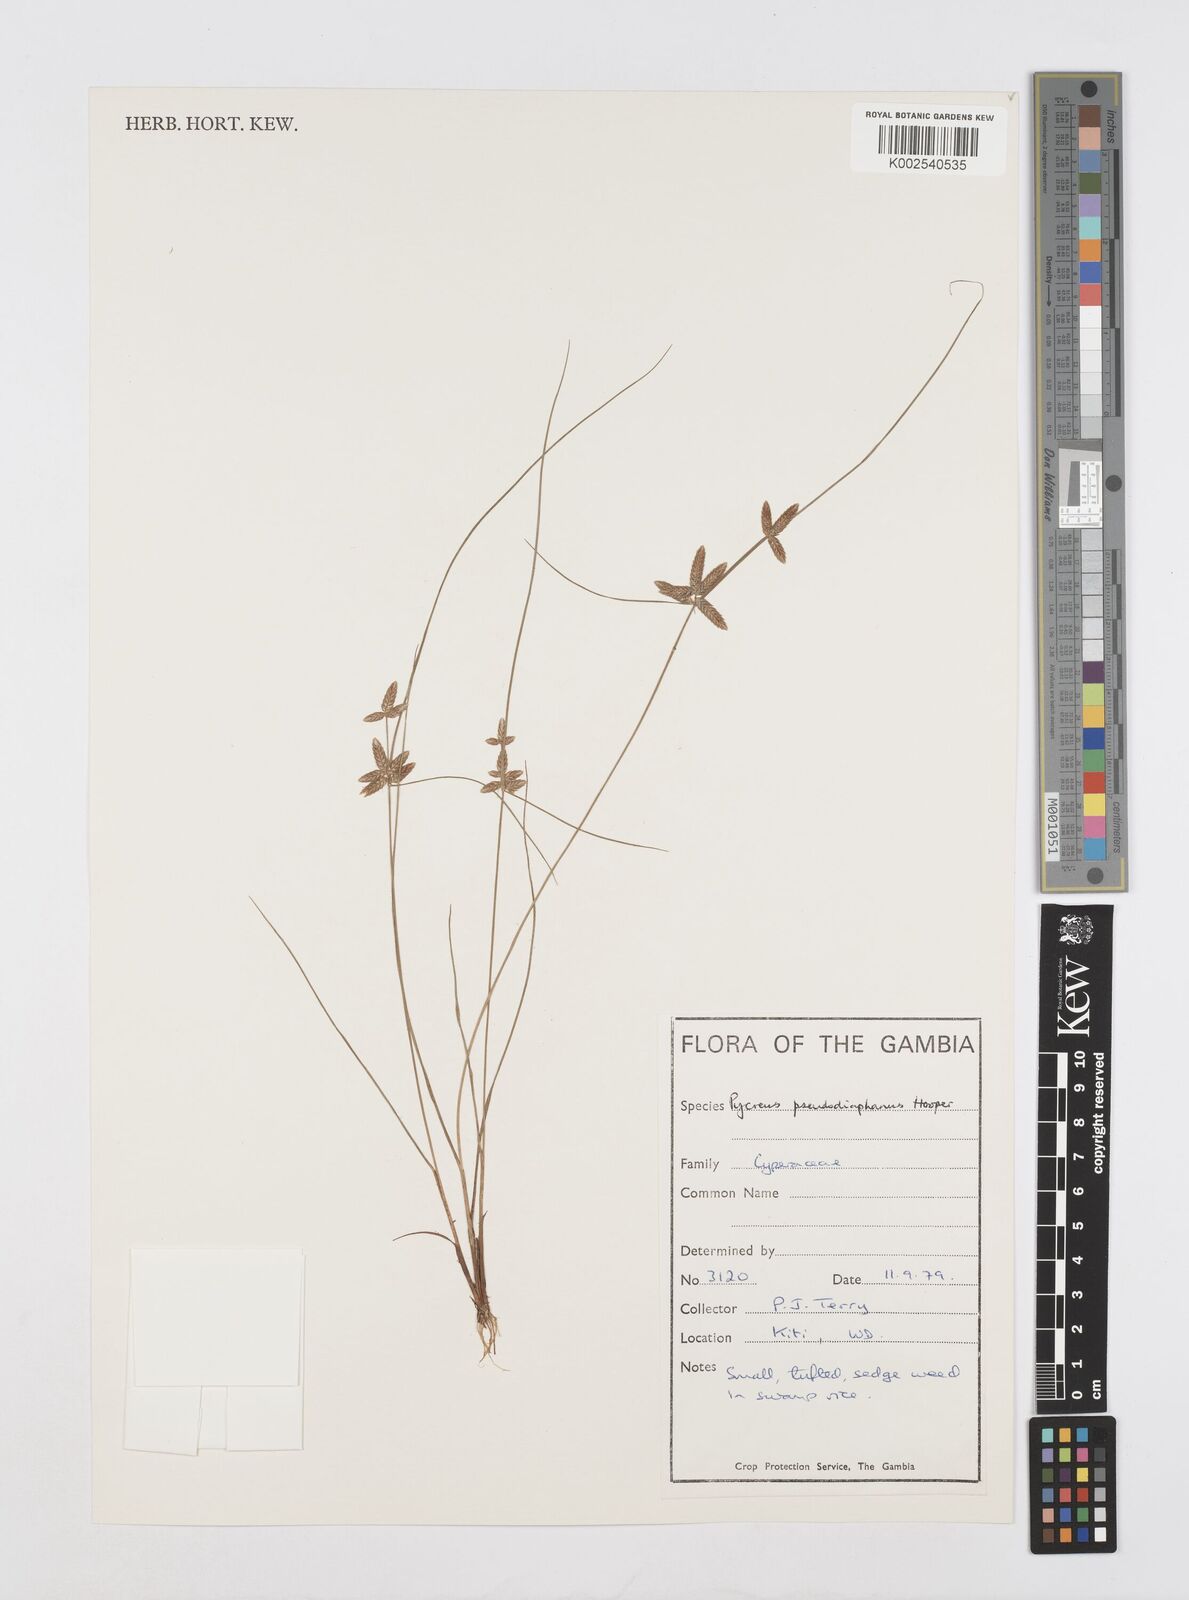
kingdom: Plantae
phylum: Tracheophyta
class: Liliopsida
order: Poales
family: Cyperaceae
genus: Cyperus
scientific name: Cyperus pseudodiaphanus
